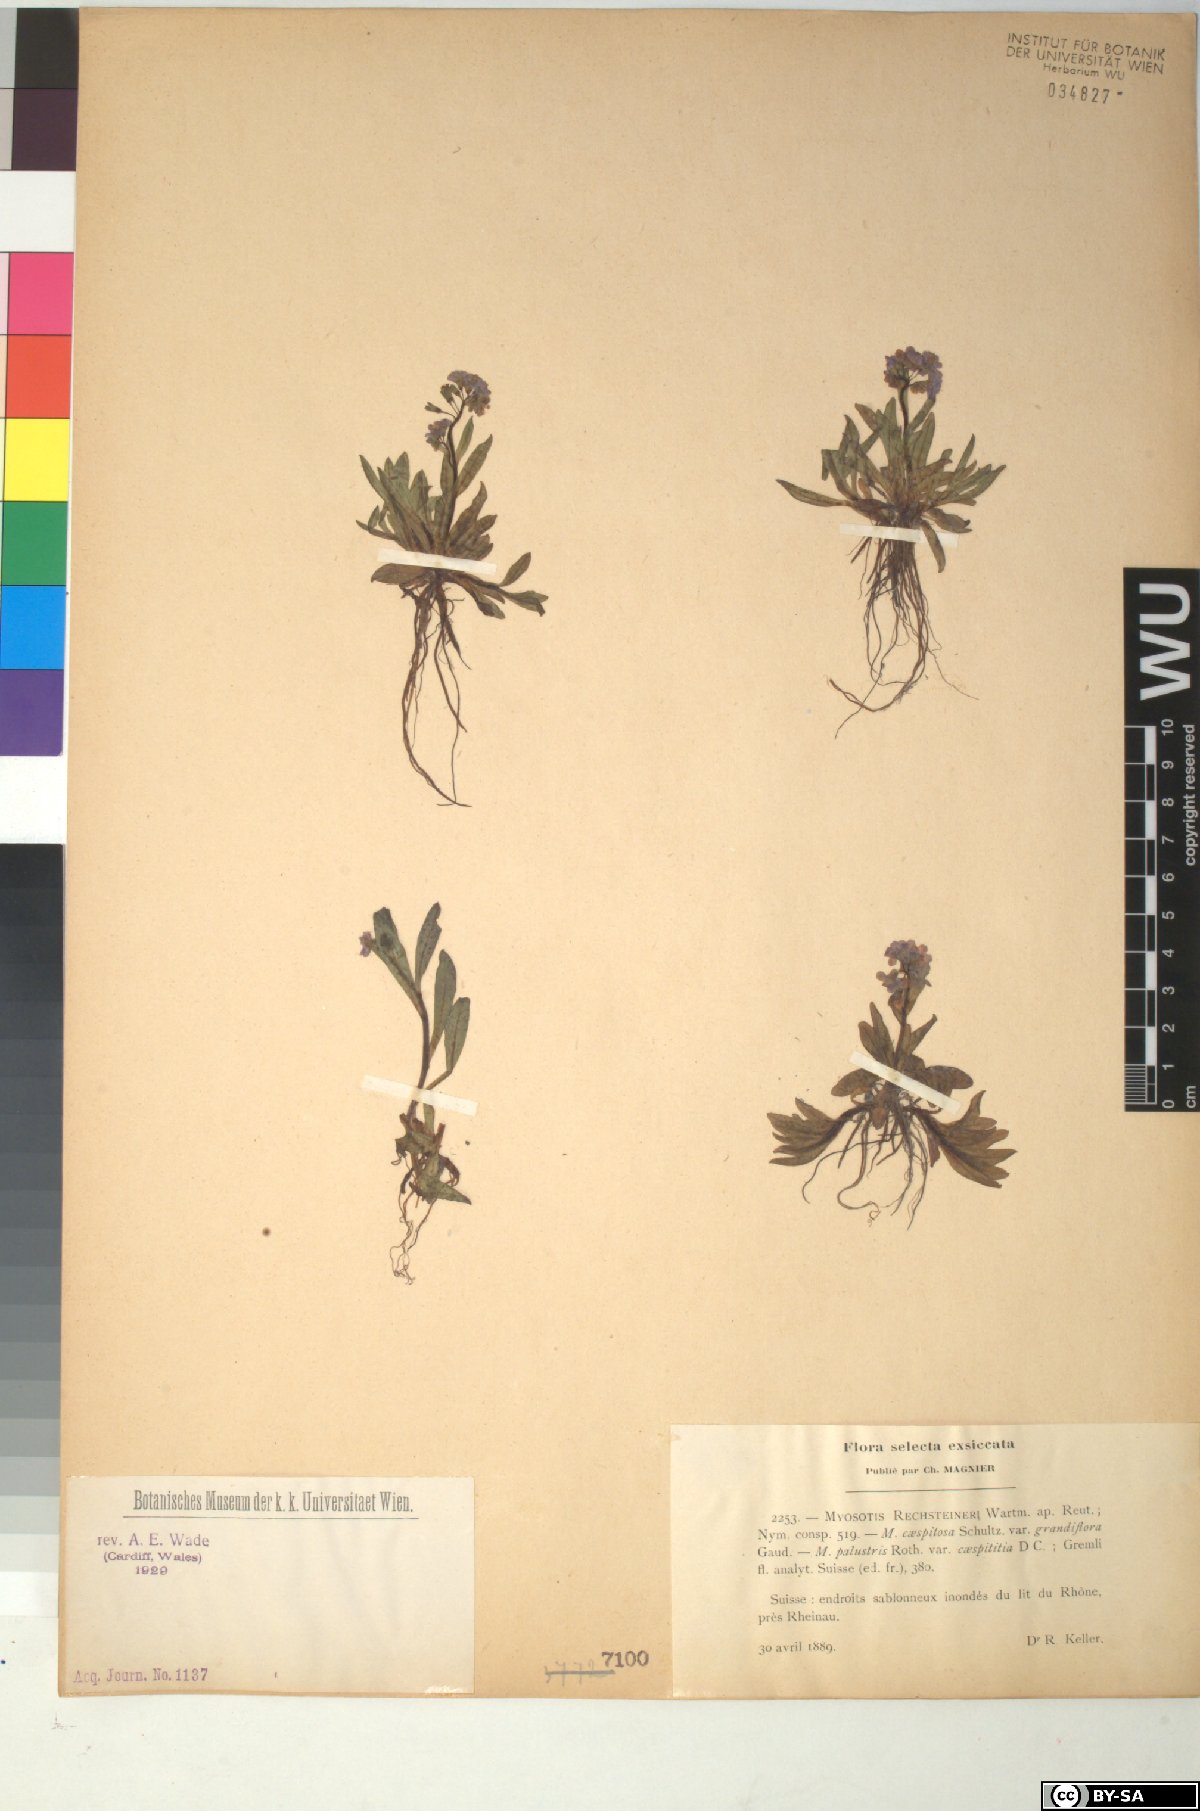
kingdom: Plantae
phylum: Tracheophyta
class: Magnoliopsida
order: Boraginales
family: Boraginaceae
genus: Myosotis
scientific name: Myosotis rehsteineri
